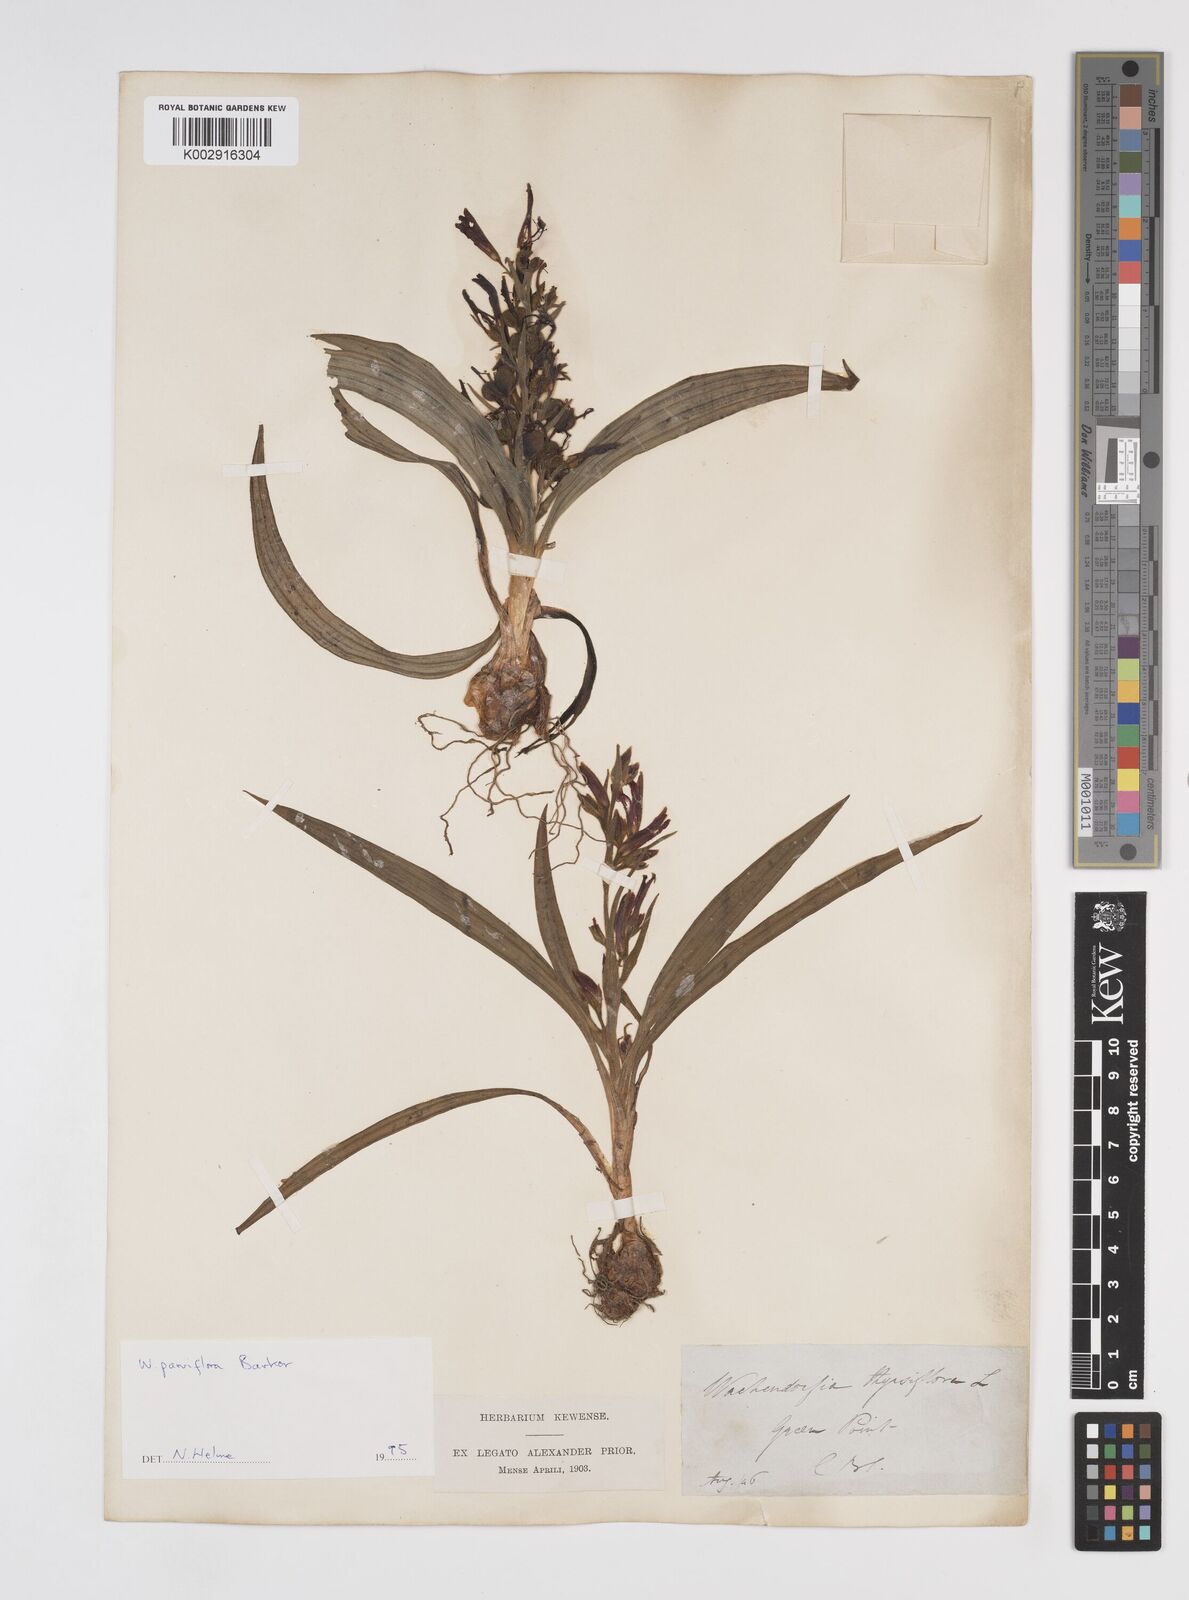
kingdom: Plantae
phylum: Tracheophyta
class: Liliopsida
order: Commelinales
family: Haemodoraceae
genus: Wachendorfia
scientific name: Wachendorfia multiflora
